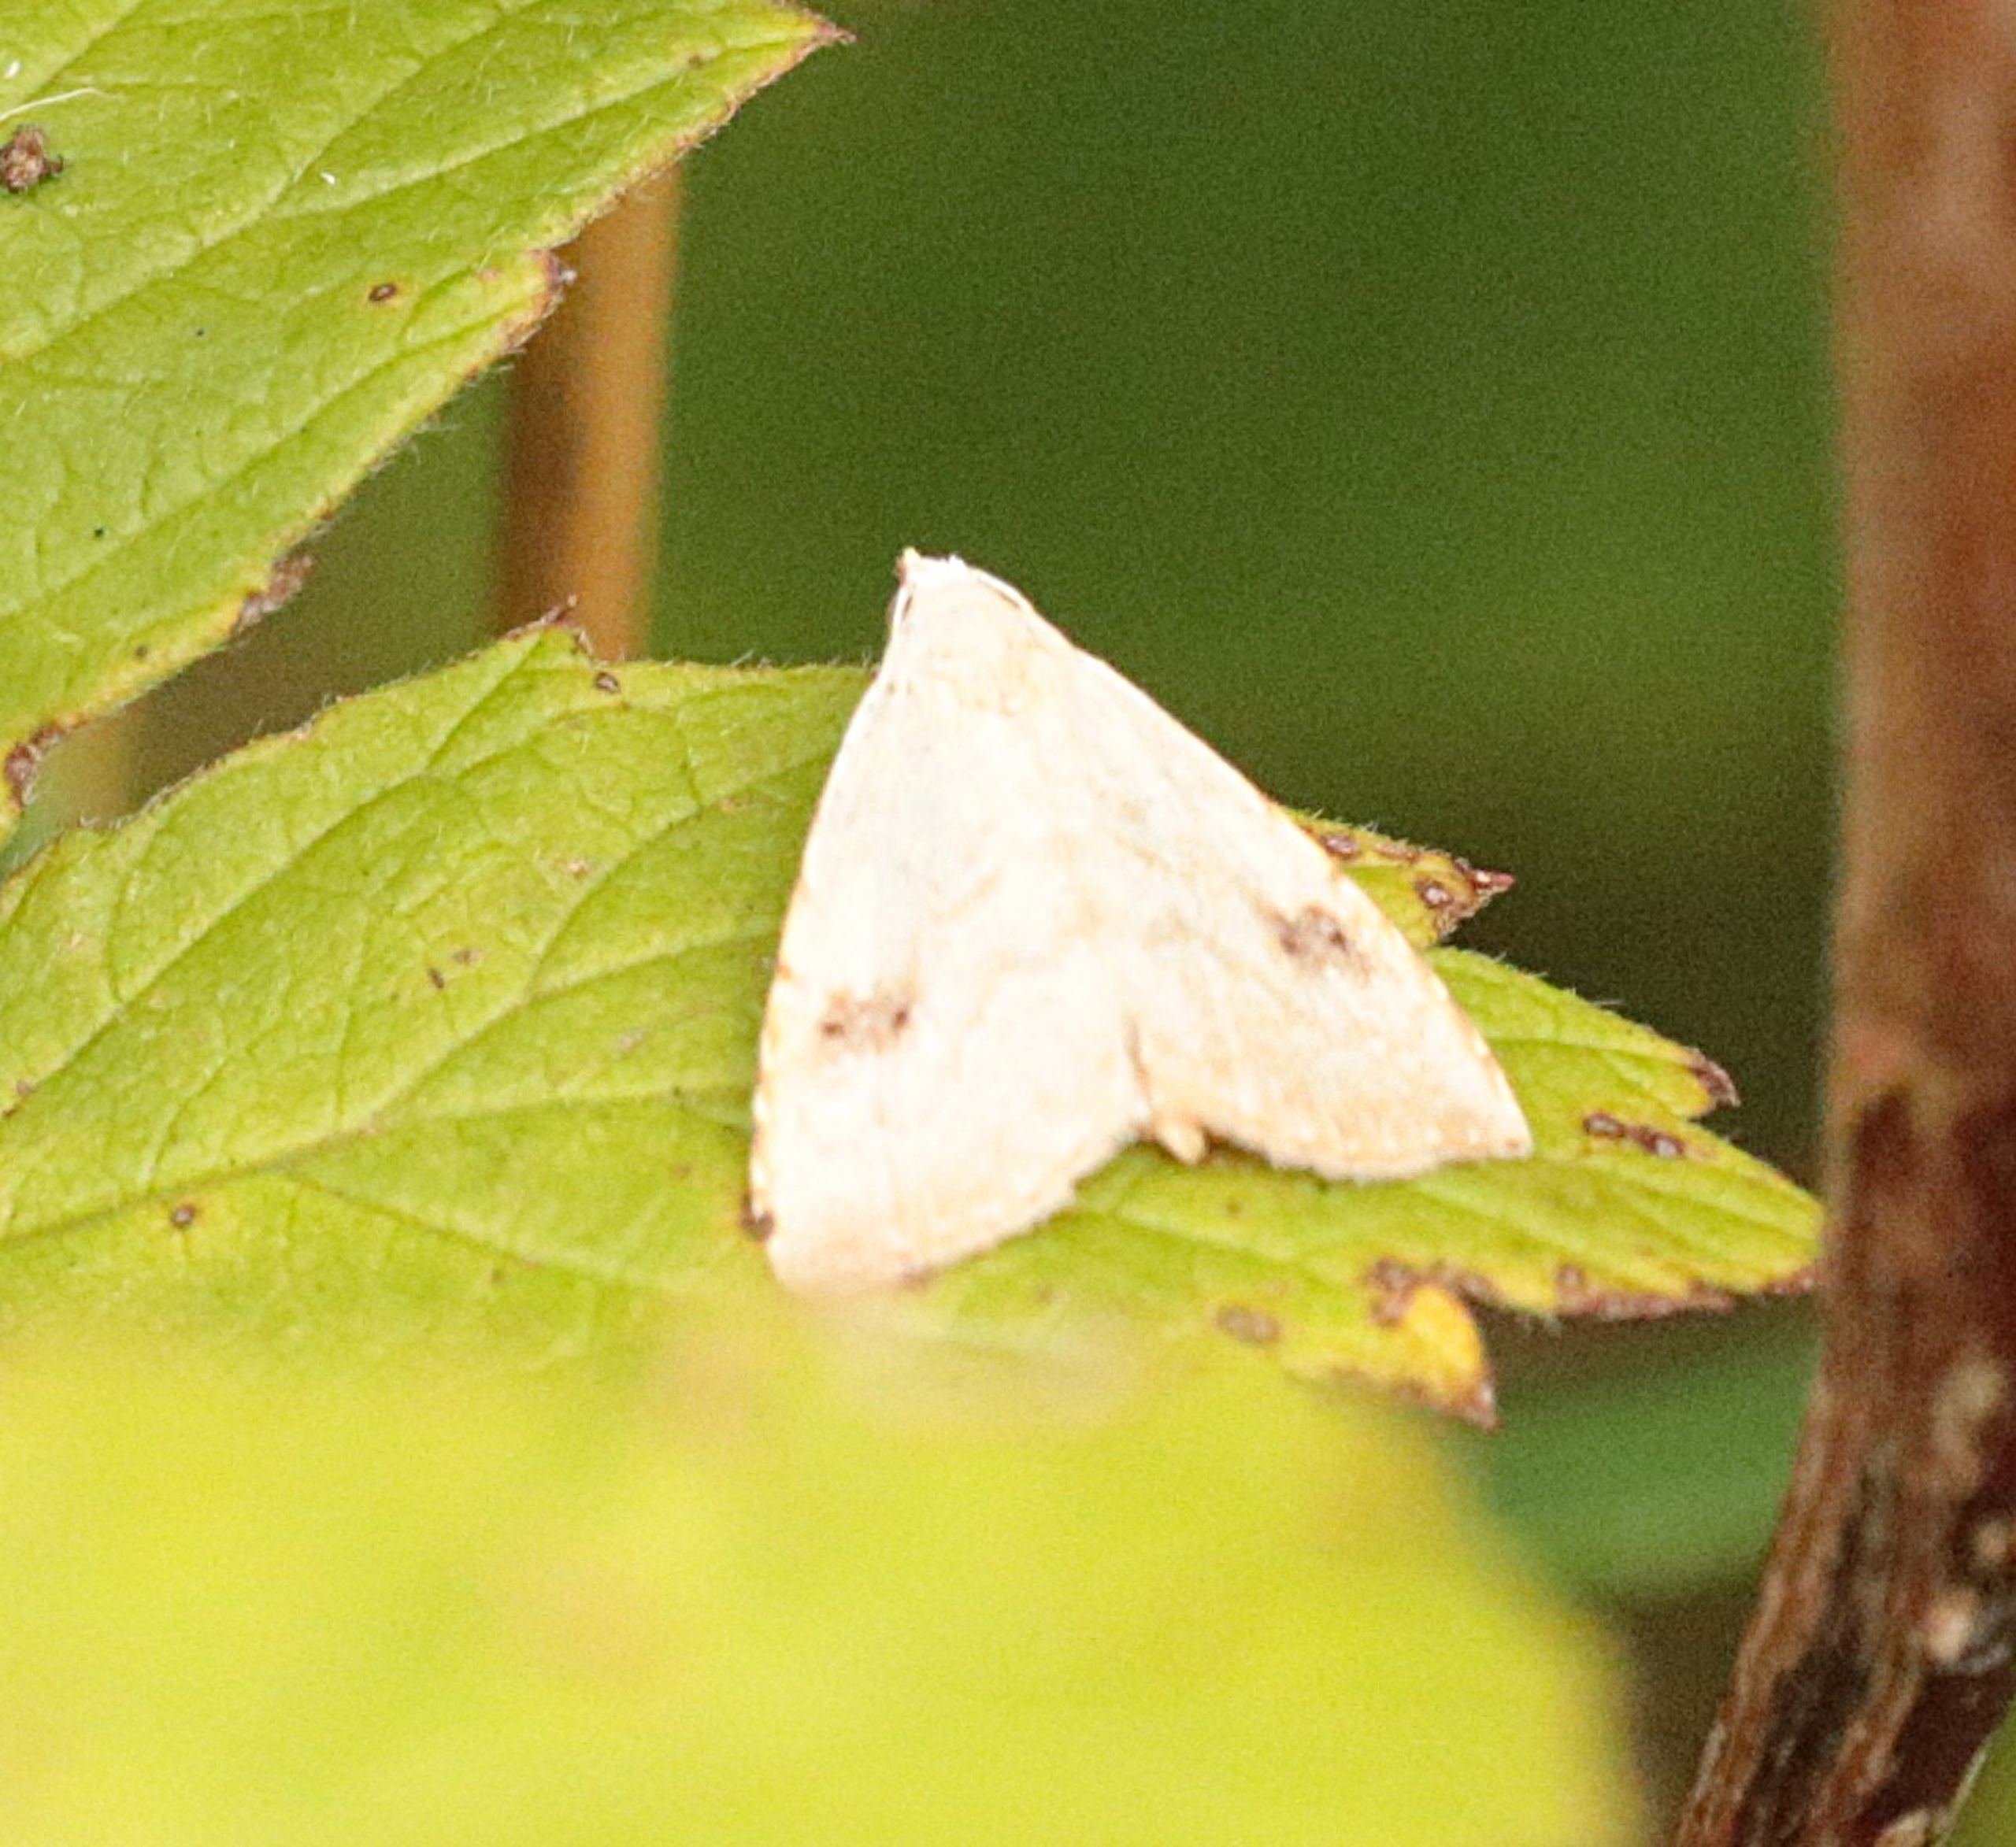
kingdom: Animalia
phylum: Arthropoda
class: Insecta
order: Lepidoptera
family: Erebidae
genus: Rivula
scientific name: Rivula sericealis
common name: Lille å-ugle
